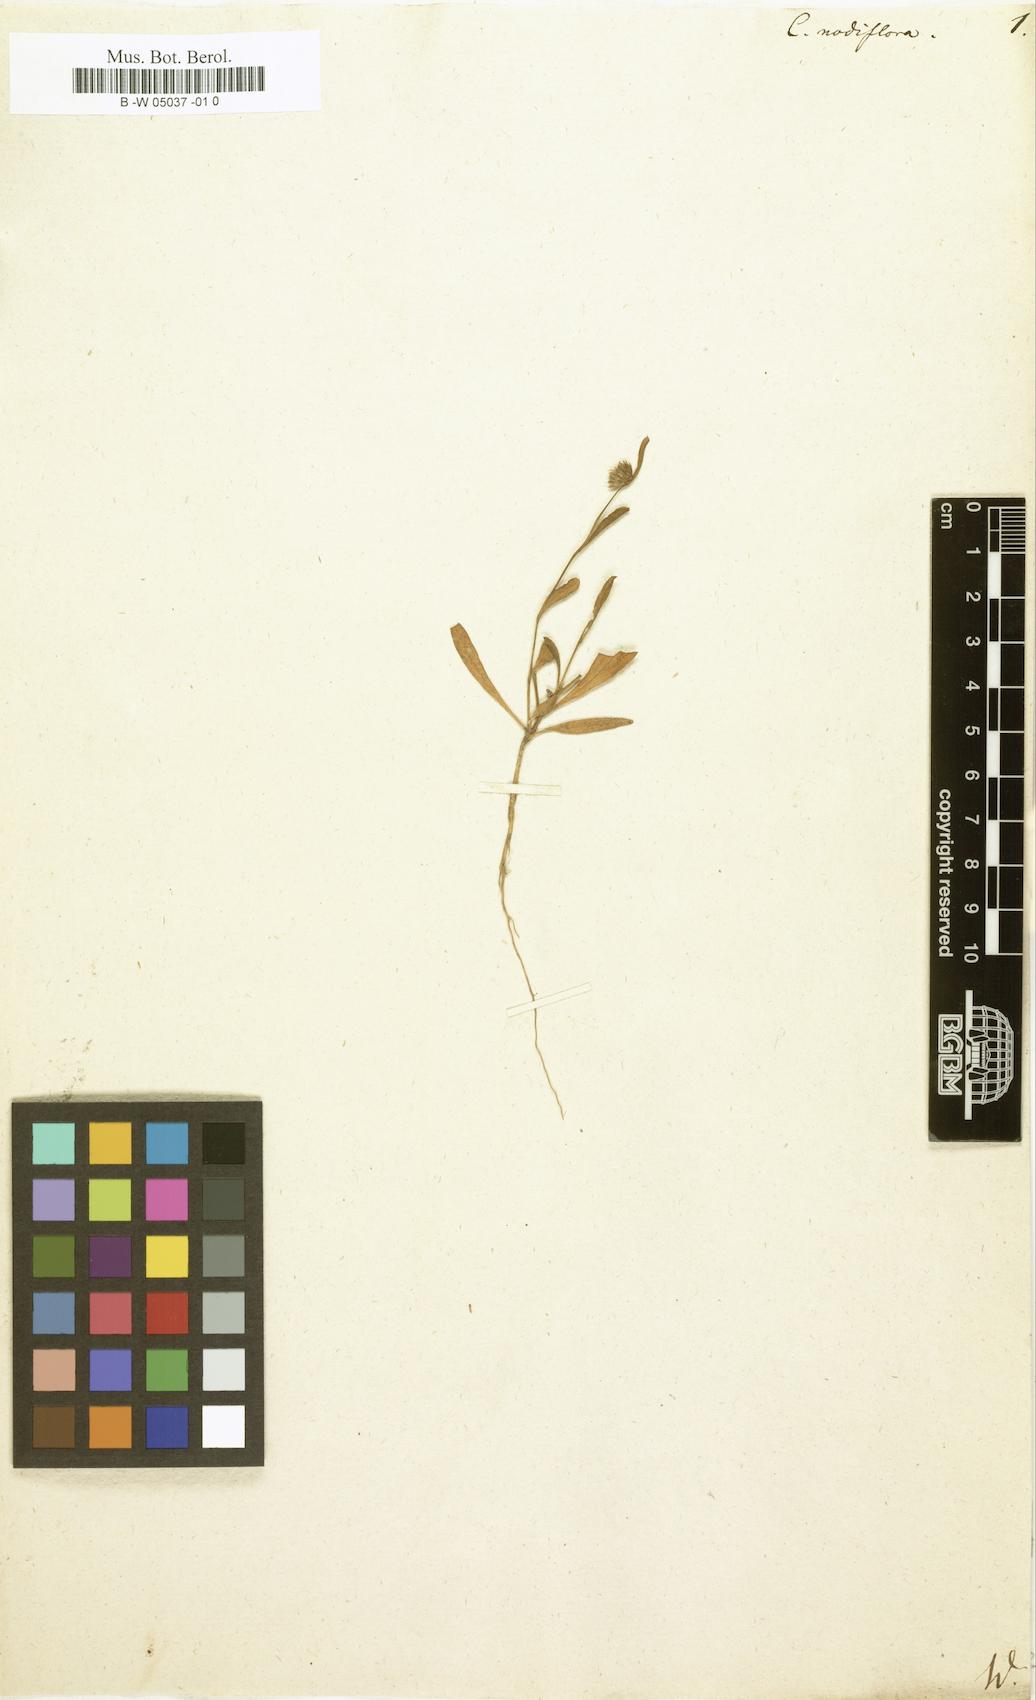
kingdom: Plantae
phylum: Tracheophyta
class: Magnoliopsida
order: Caryophyllales
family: Amaranthaceae
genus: Allmania
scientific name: Allmania nodiflora
